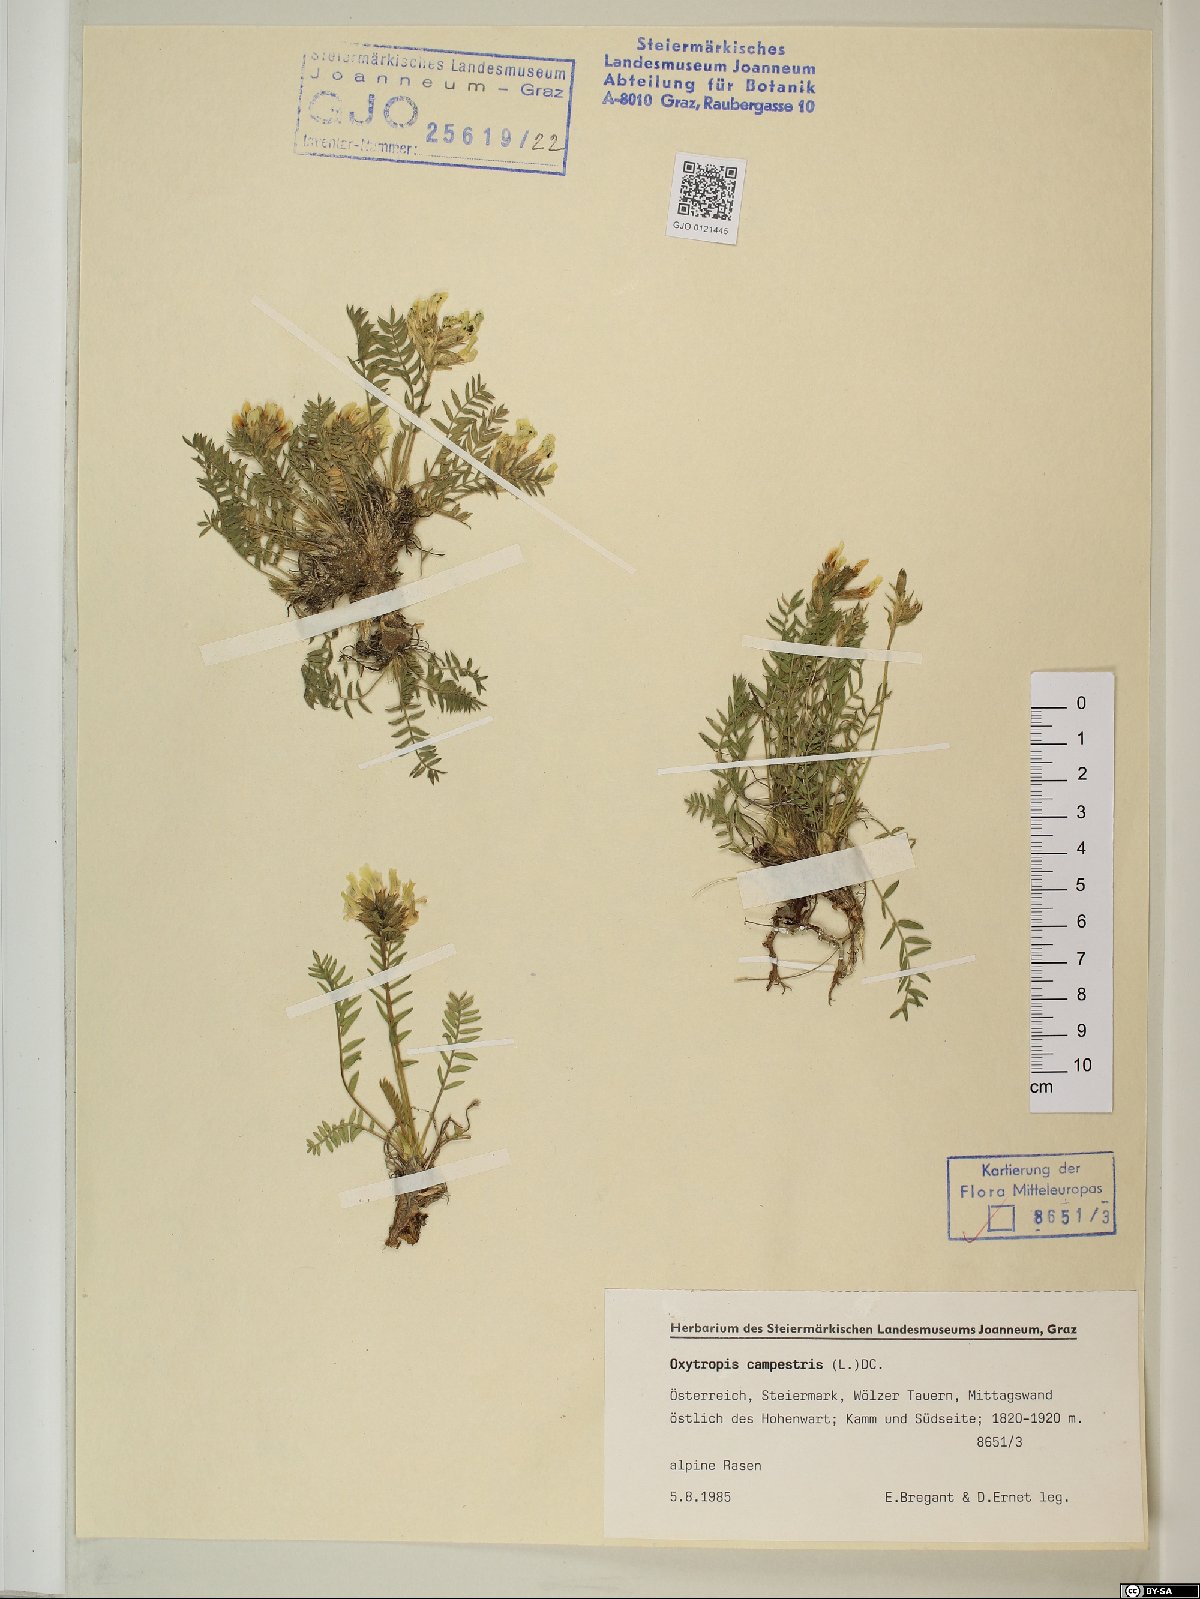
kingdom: Plantae
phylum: Tracheophyta
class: Magnoliopsida
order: Fabales
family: Fabaceae
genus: Oxytropis
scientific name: Oxytropis campestris
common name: Field locoweed
